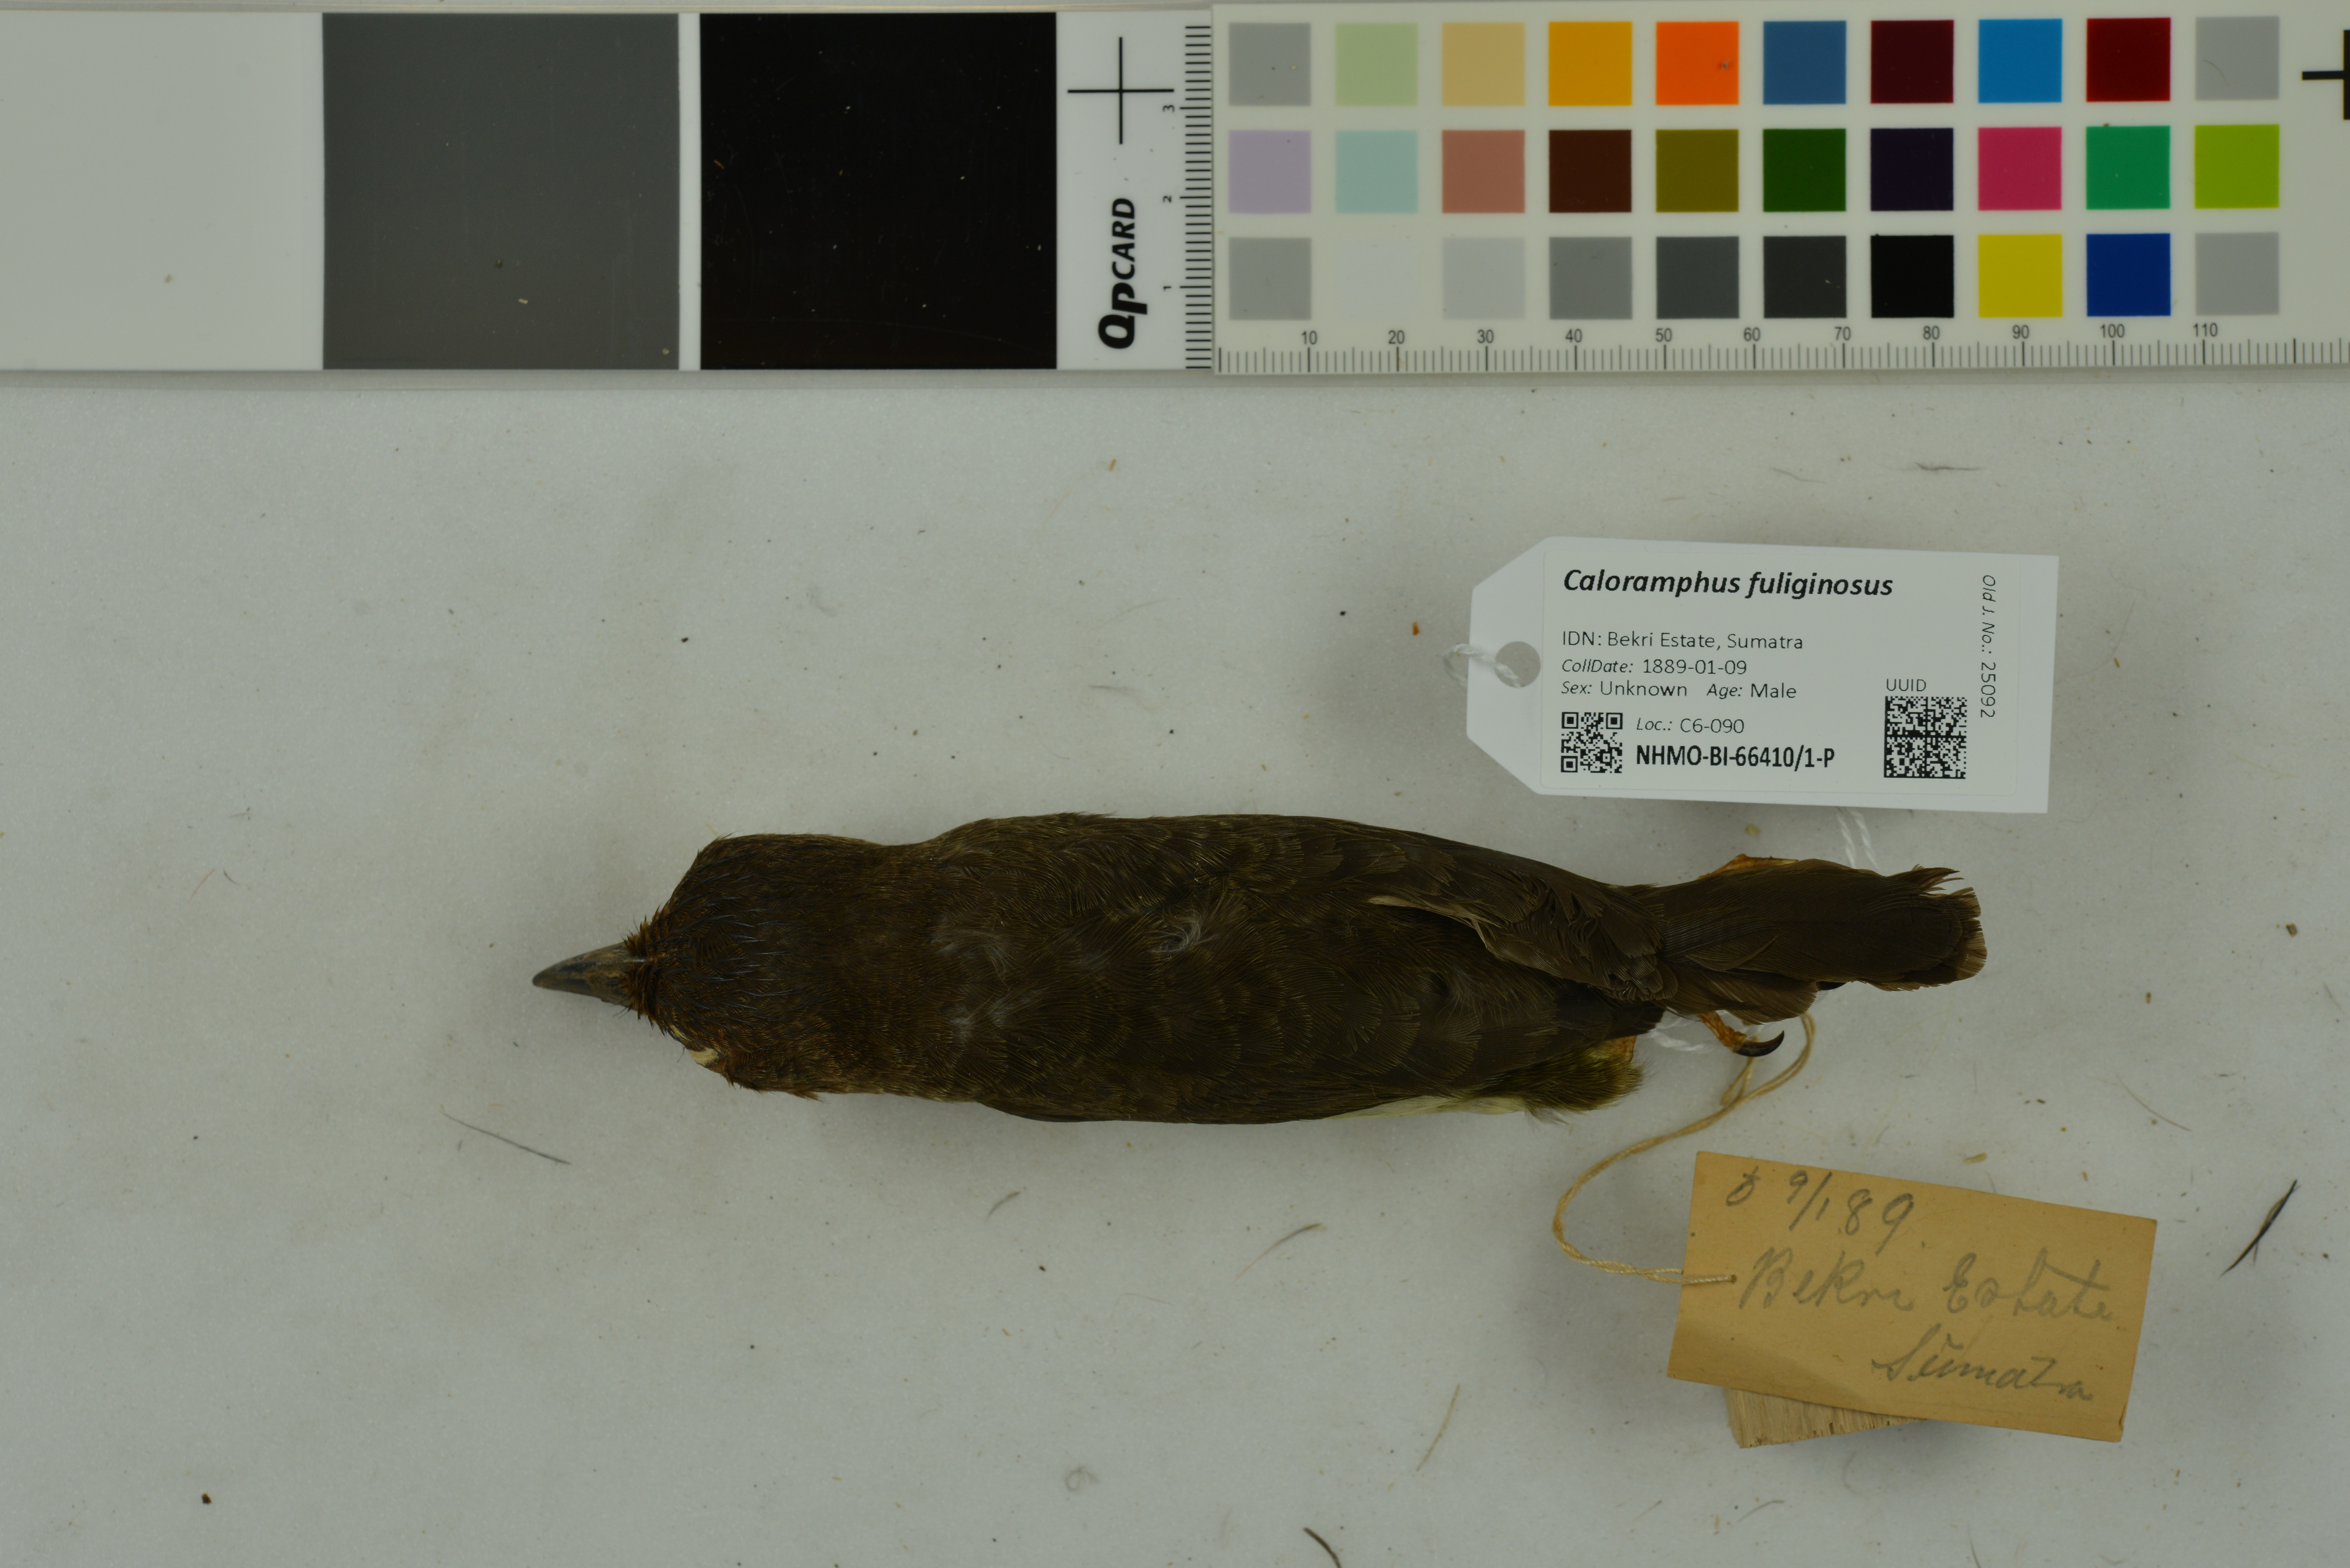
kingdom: Animalia
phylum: Chordata
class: Aves
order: Piciformes
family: Megalaimidae
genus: Caloramphus
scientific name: Caloramphus fuliginosus
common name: Brown barbet
